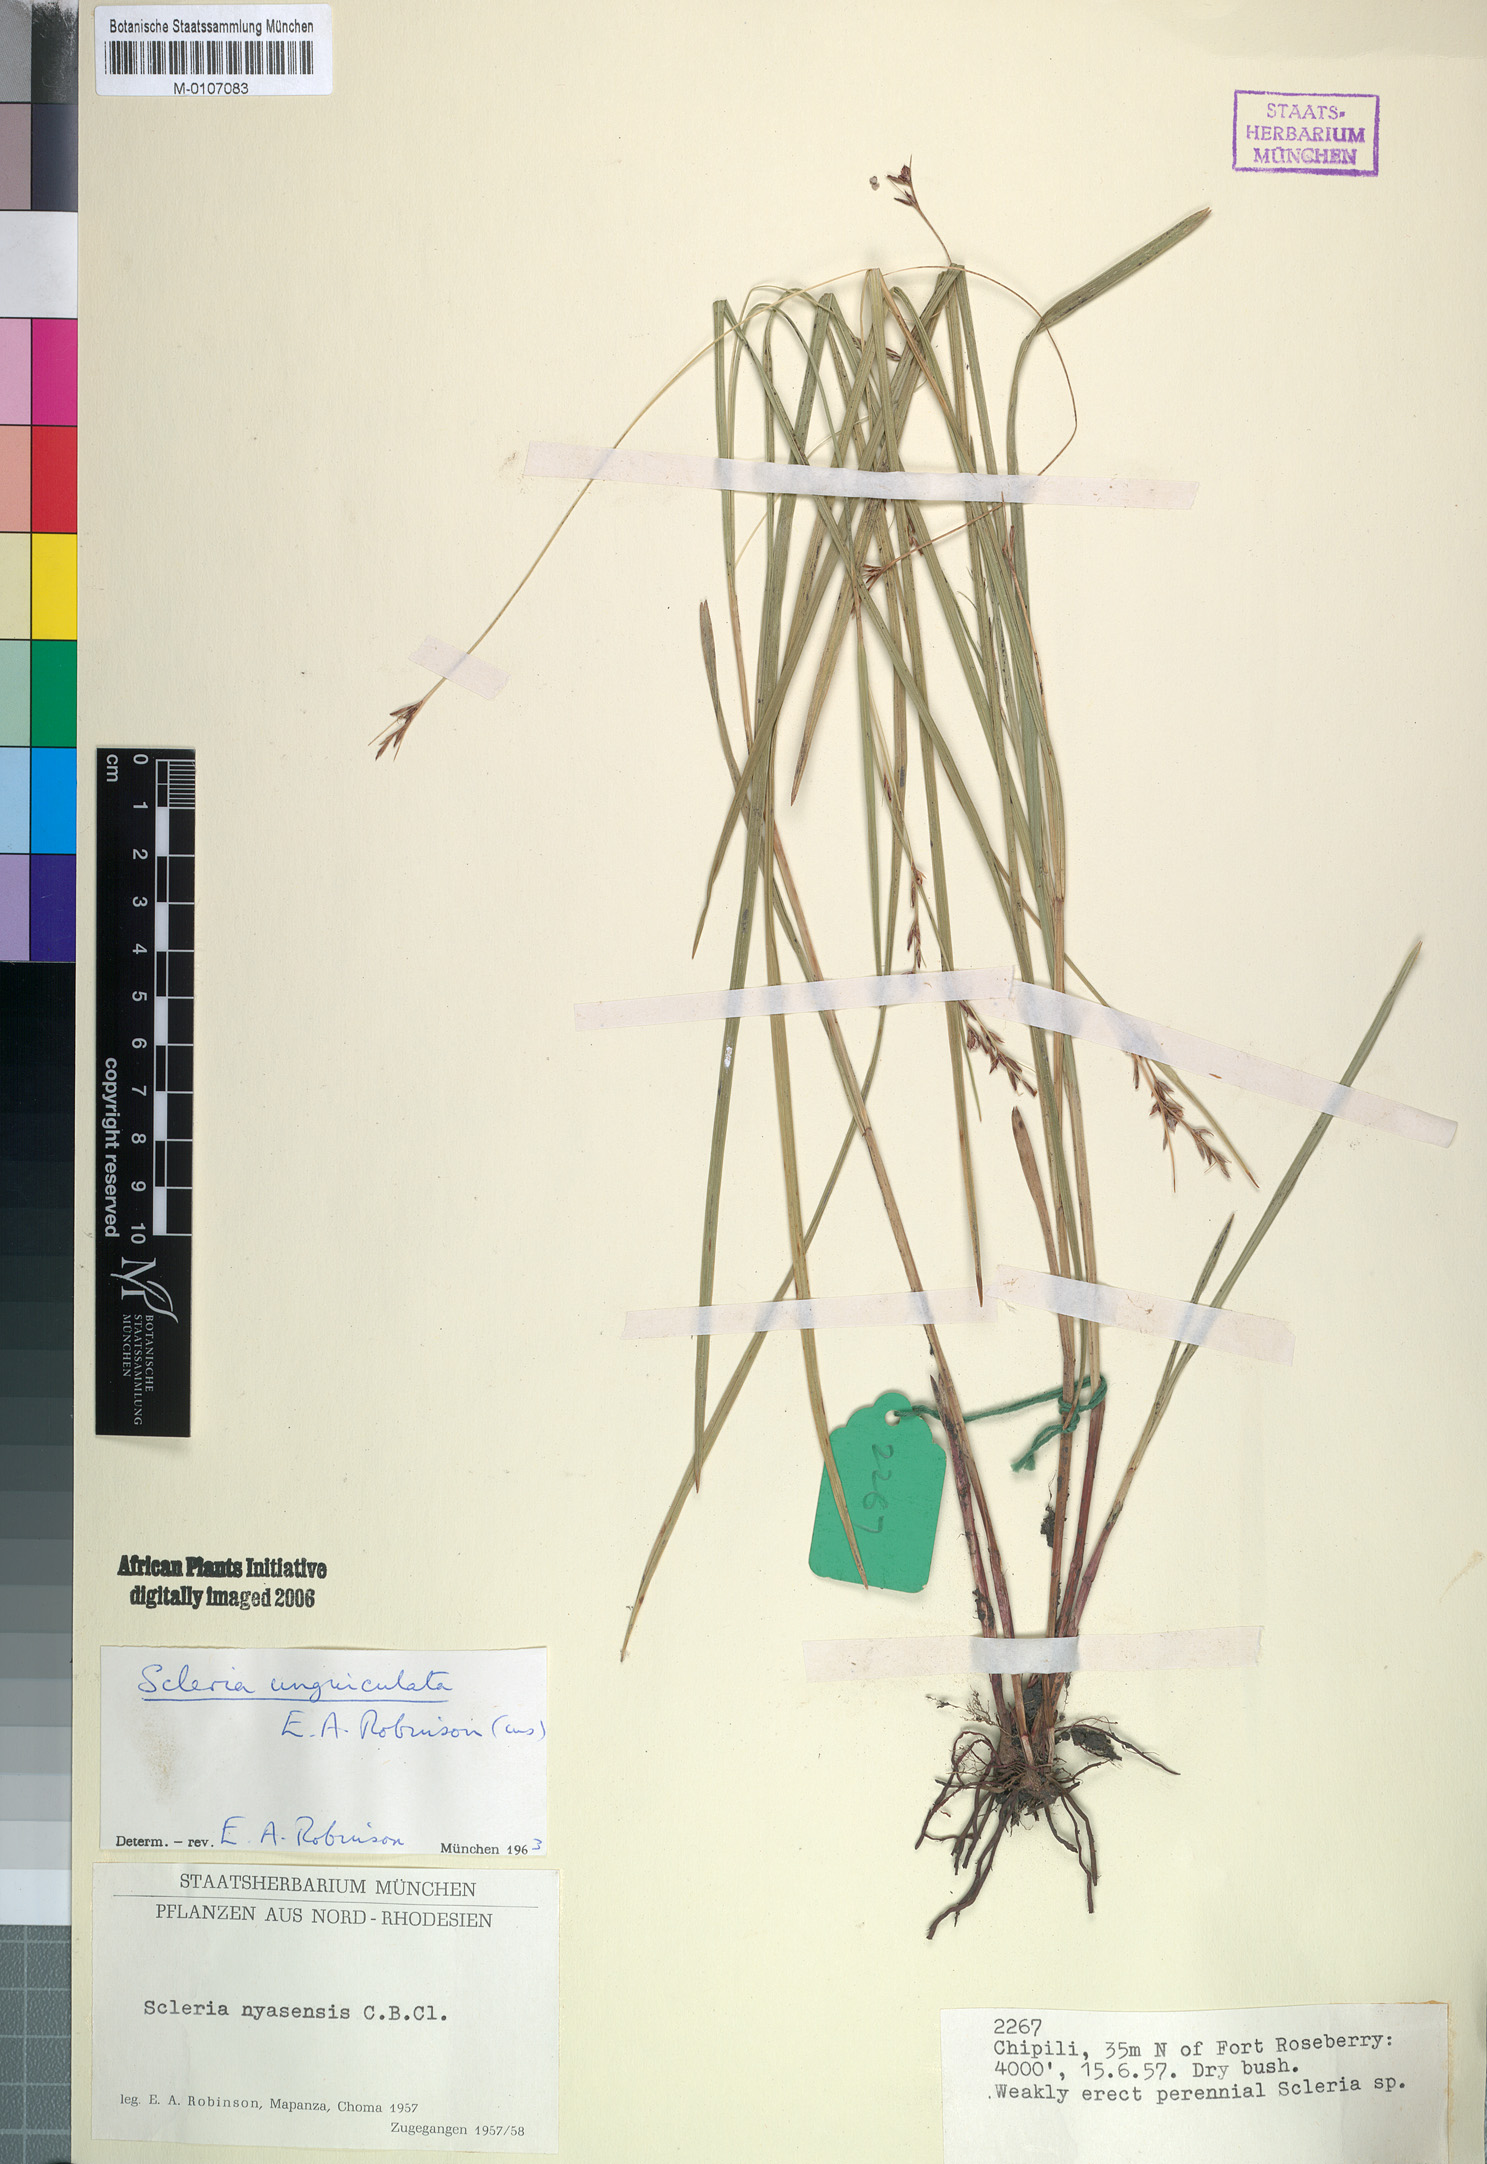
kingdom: Plantae
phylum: Tracheophyta
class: Liliopsida
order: Poales
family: Cyperaceae
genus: Scleria
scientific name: Scleria unguiculata
